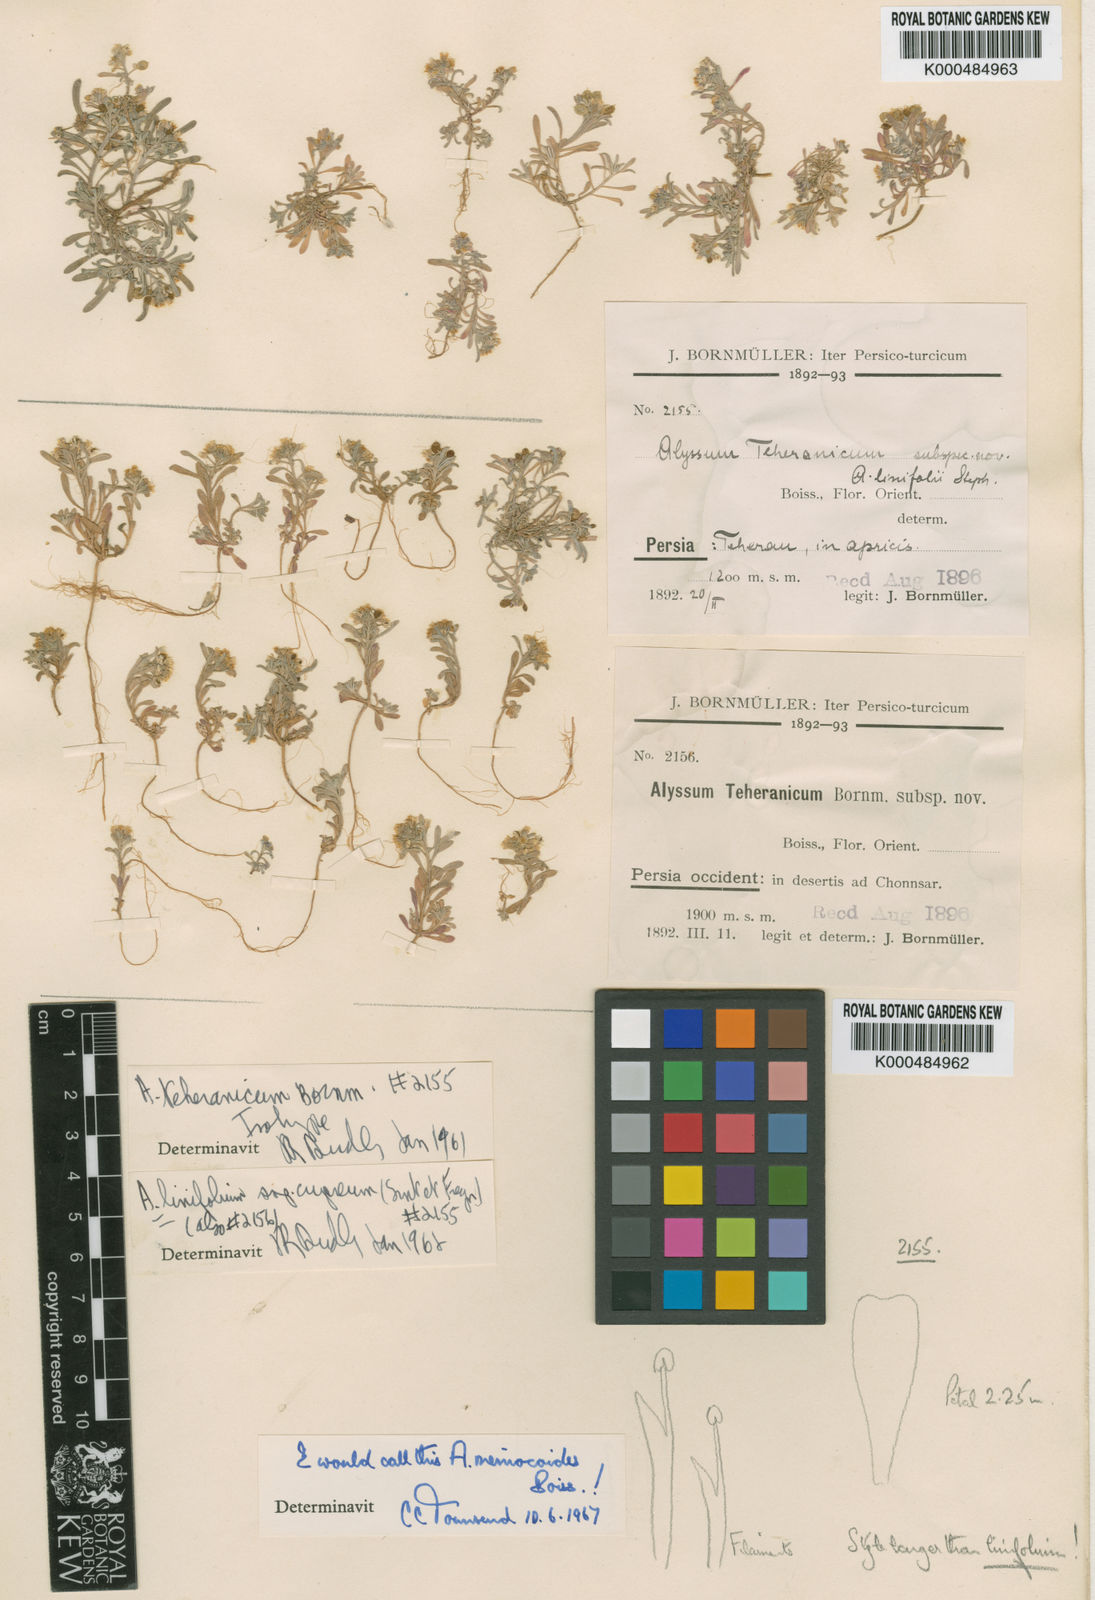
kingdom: Plantae
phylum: Tracheophyta
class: Magnoliopsida
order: Brassicales
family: Brassicaceae
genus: Meniocus
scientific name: Meniocus linifolius
